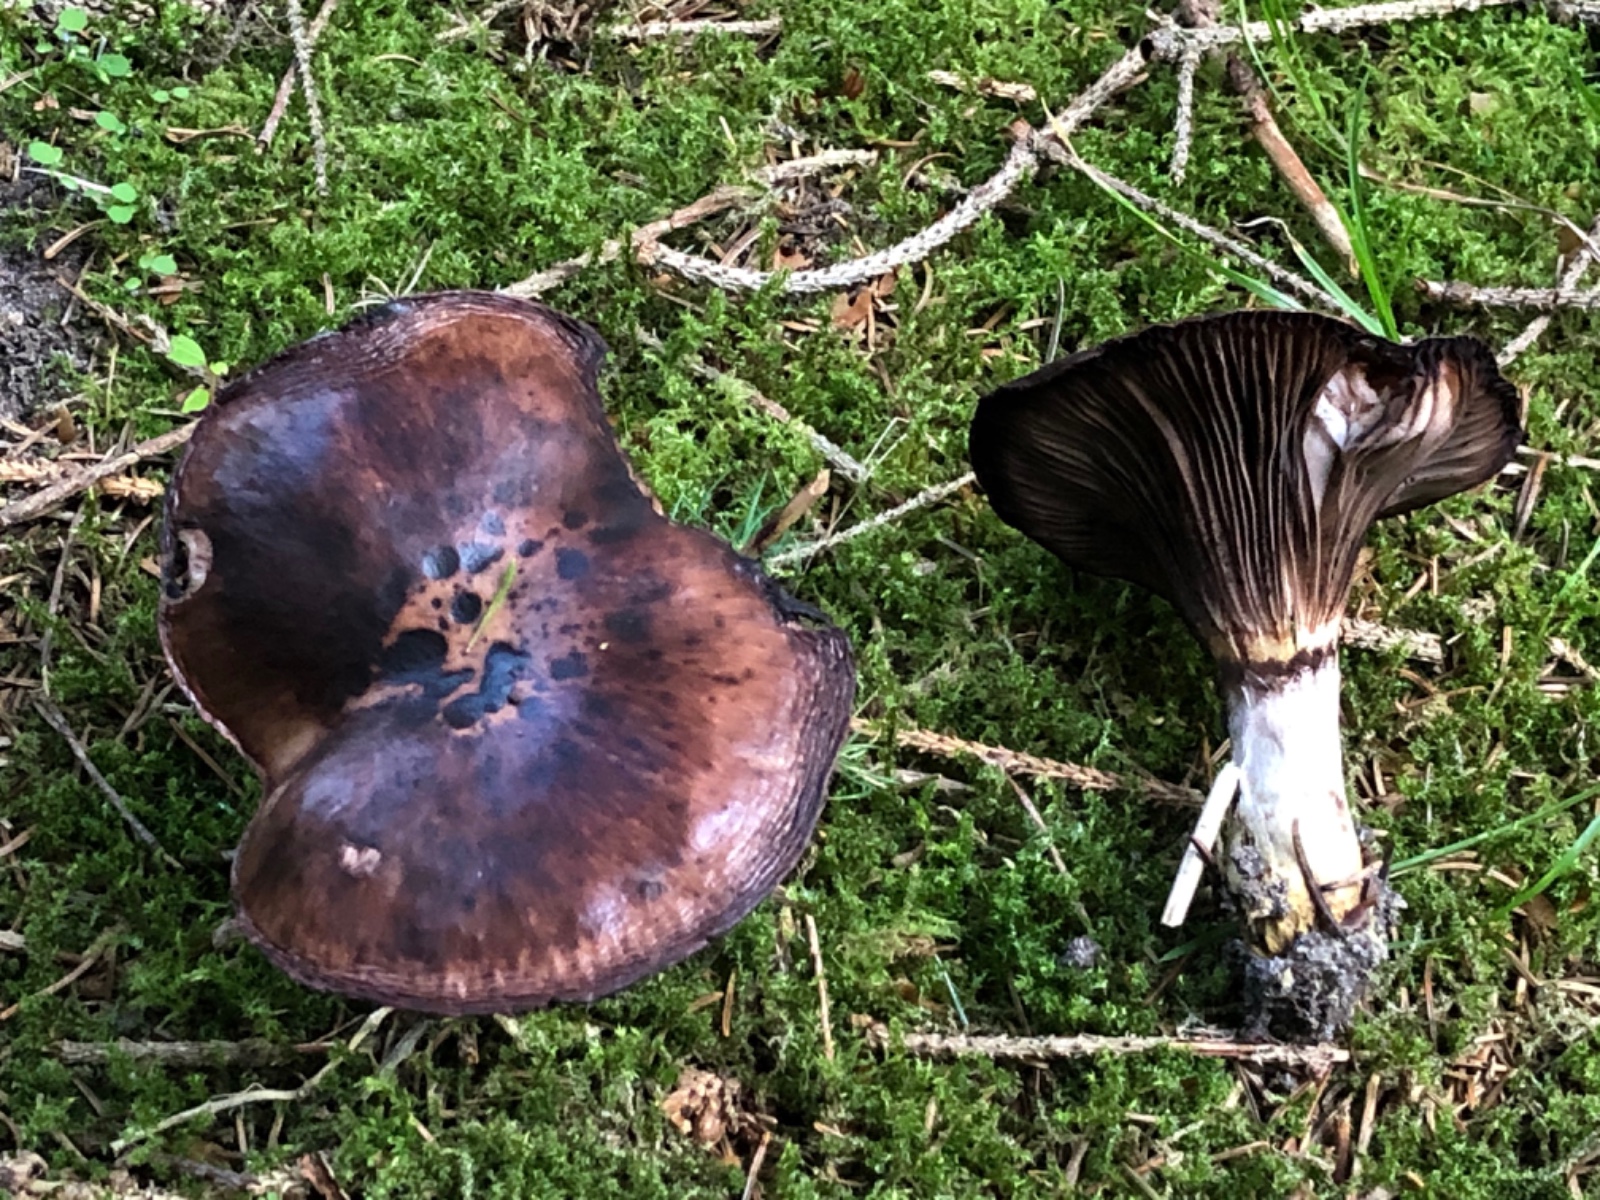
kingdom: Fungi
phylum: Basidiomycota
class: Agaricomycetes
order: Boletales
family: Gomphidiaceae
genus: Gomphidius
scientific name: Gomphidius glutinosus
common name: grå slimslør
